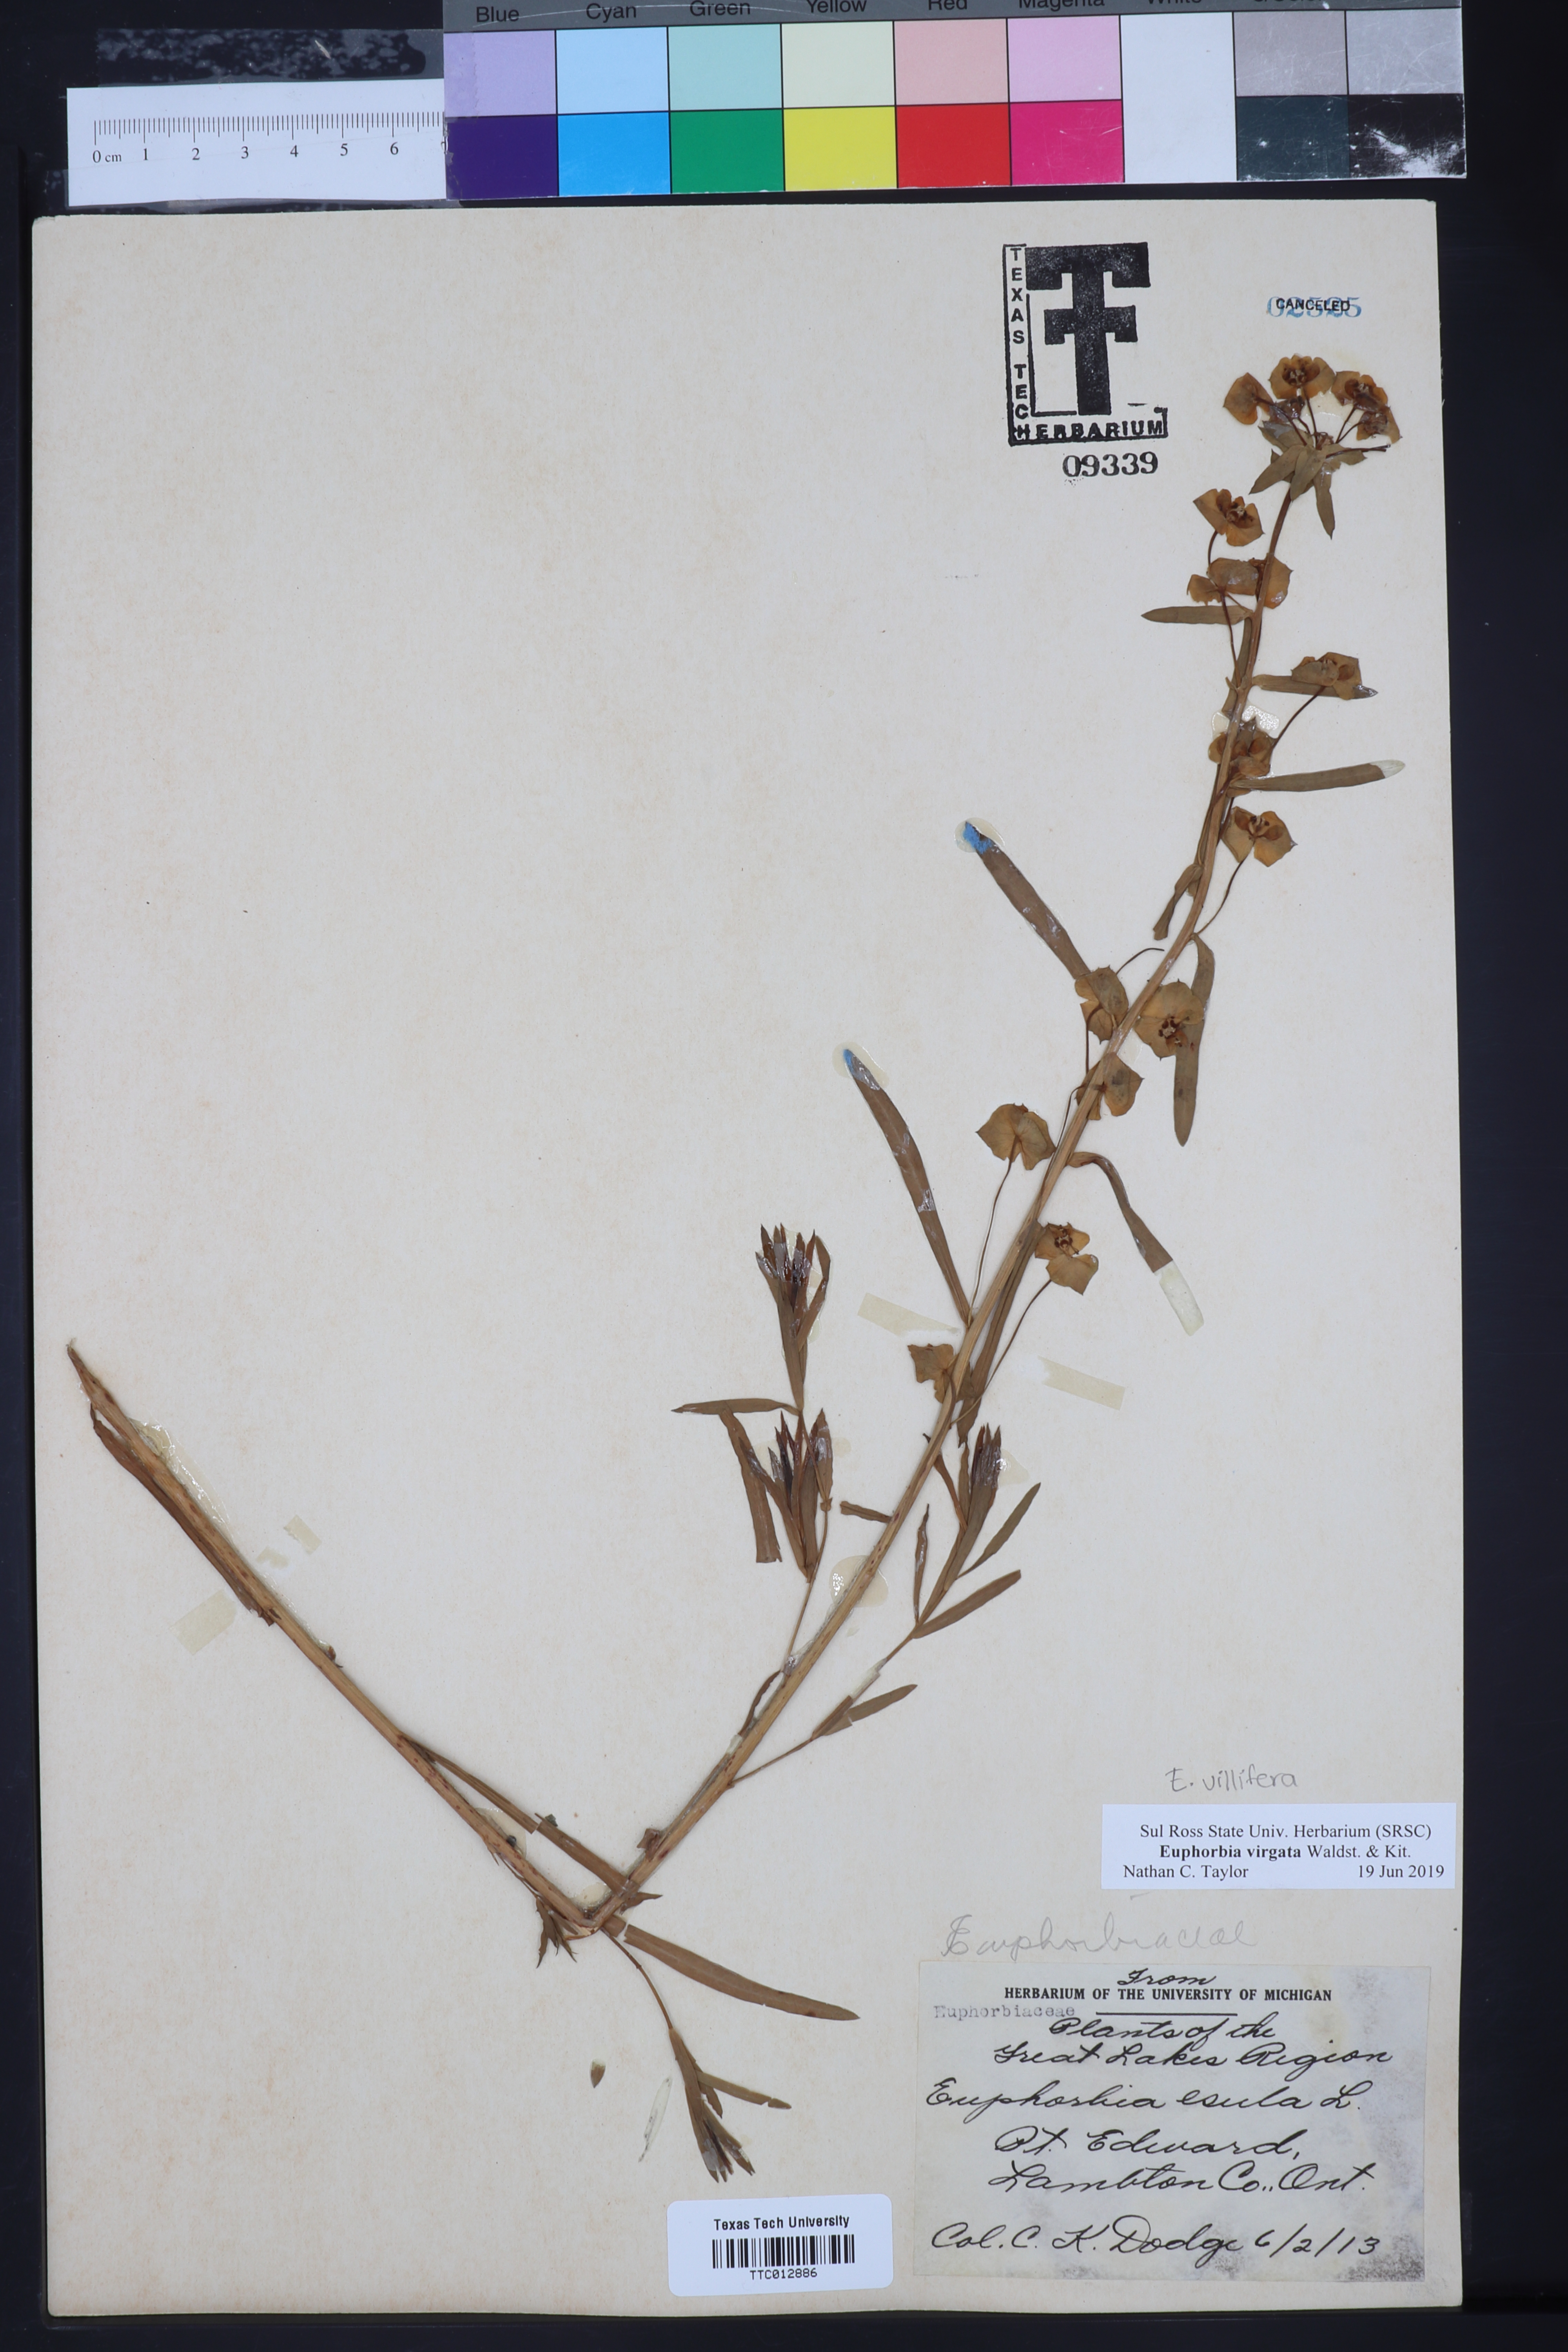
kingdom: Plantae
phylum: Tracheophyta
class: Magnoliopsida
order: Malpighiales
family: Euphorbiaceae
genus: Euphorbia
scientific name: Euphorbia vermiculata
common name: Hairy spurge
